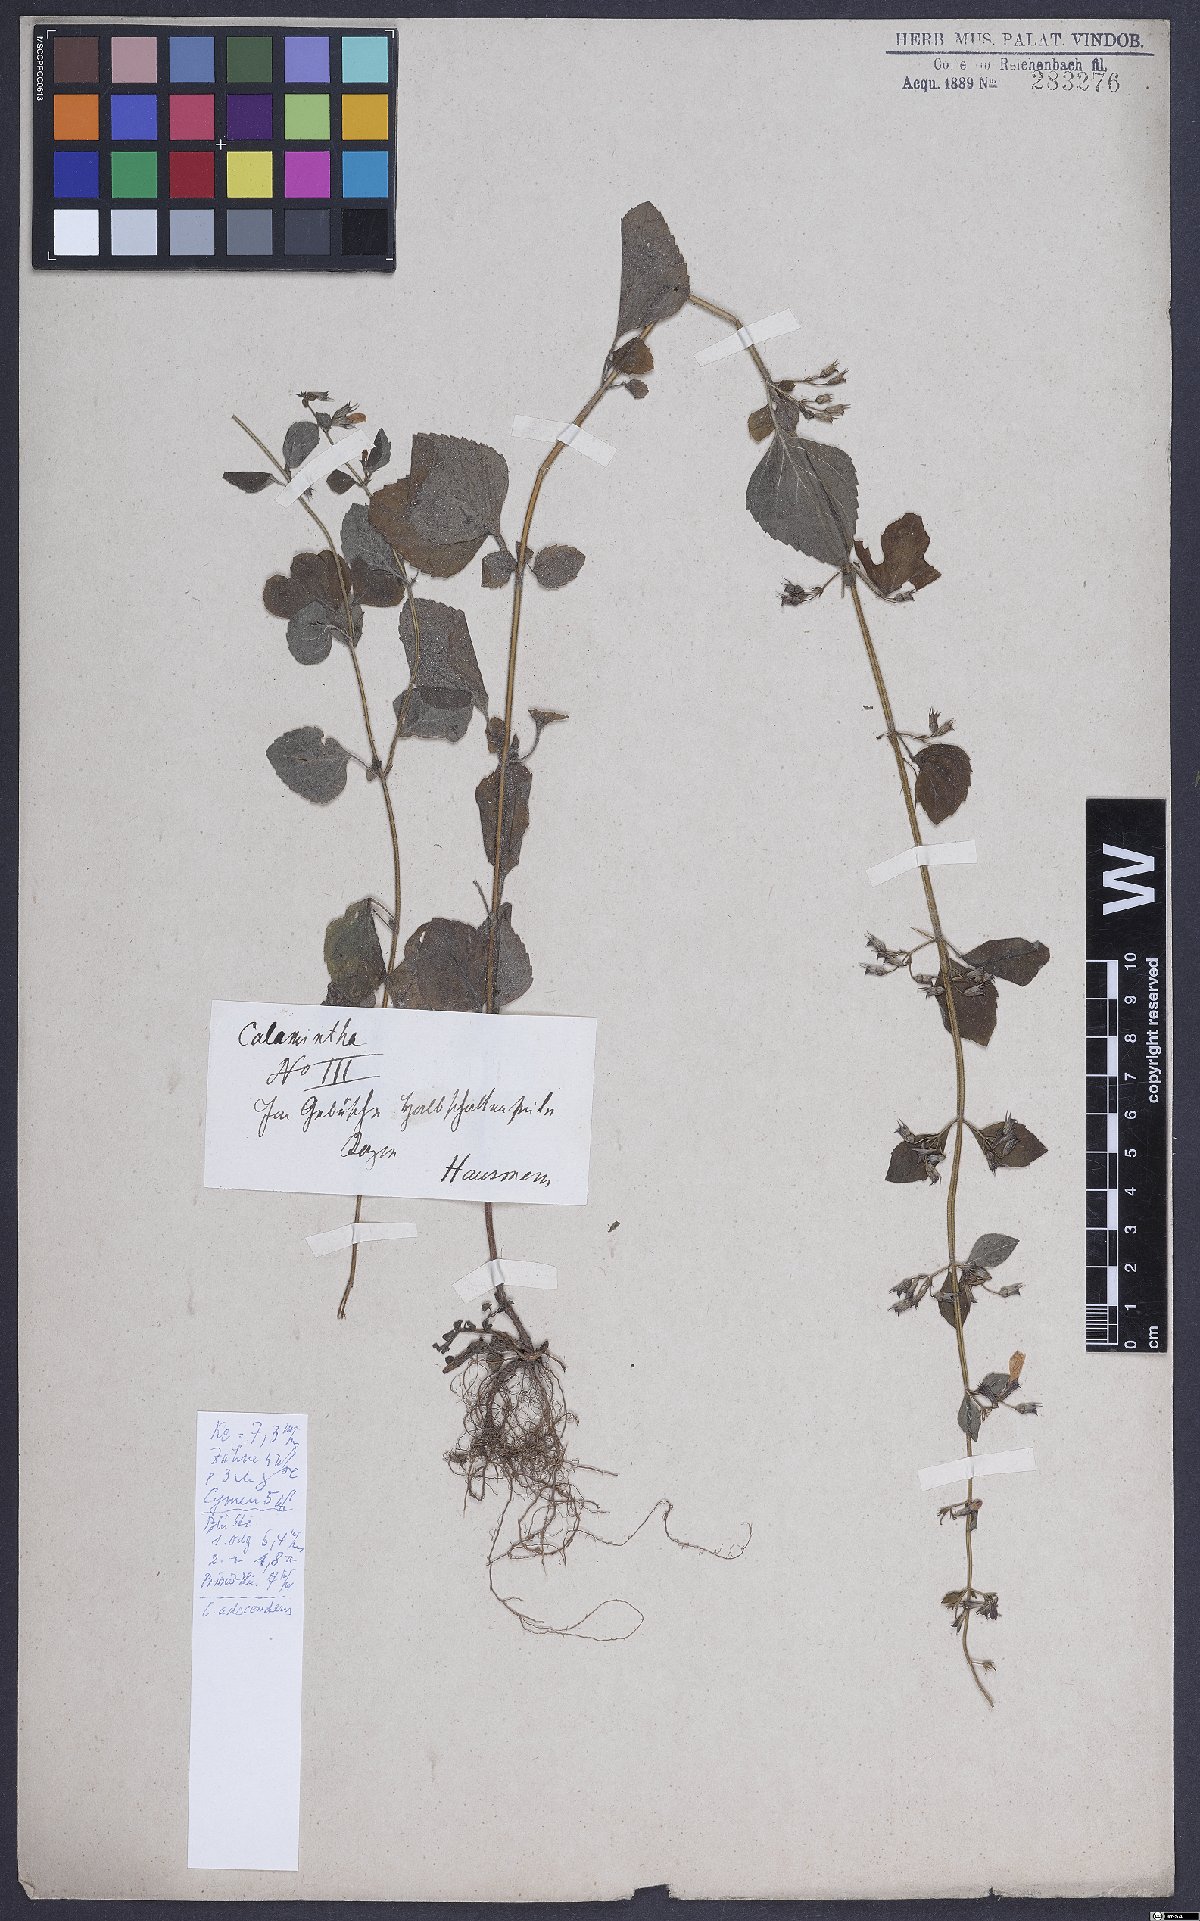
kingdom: Plantae
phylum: Tracheophyta
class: Magnoliopsida
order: Lamiales
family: Lamiaceae
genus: Clinopodium
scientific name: Clinopodium menthifolium
